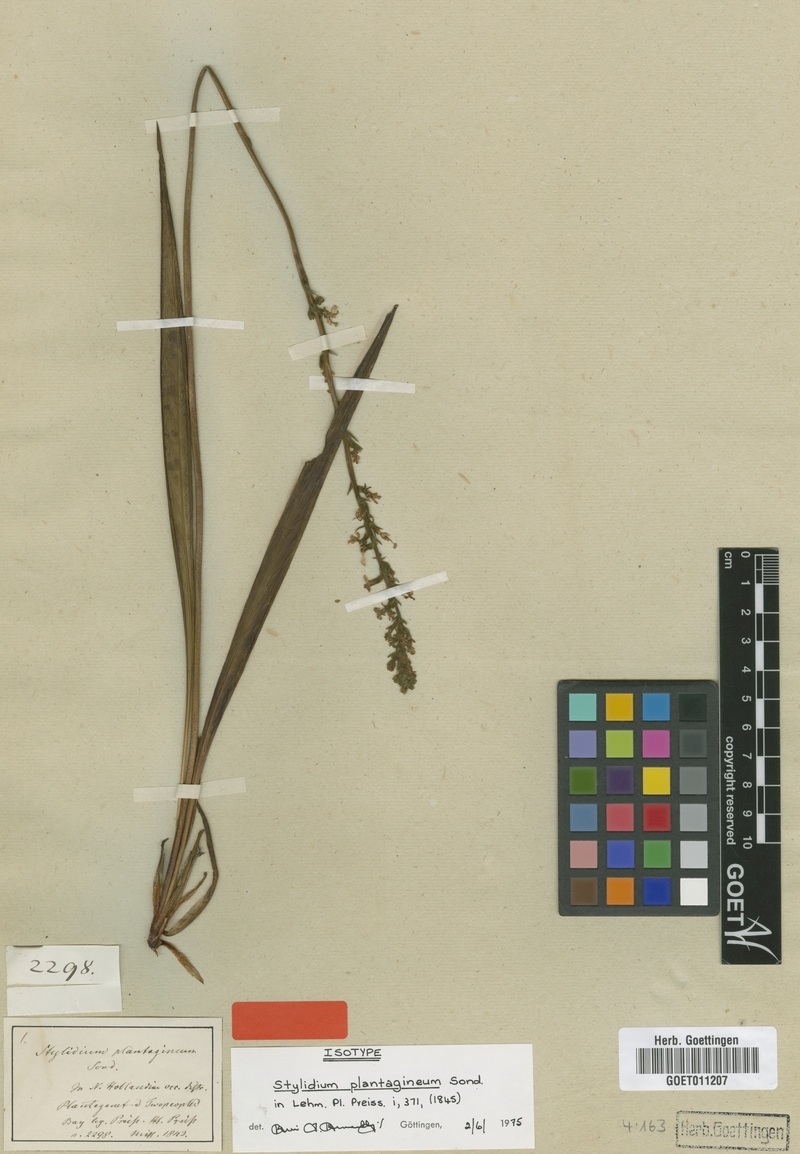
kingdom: Plantae
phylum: Tracheophyta
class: Magnoliopsida
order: Asterales
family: Stylidiaceae
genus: Stylidium
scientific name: Stylidium plantagineum
